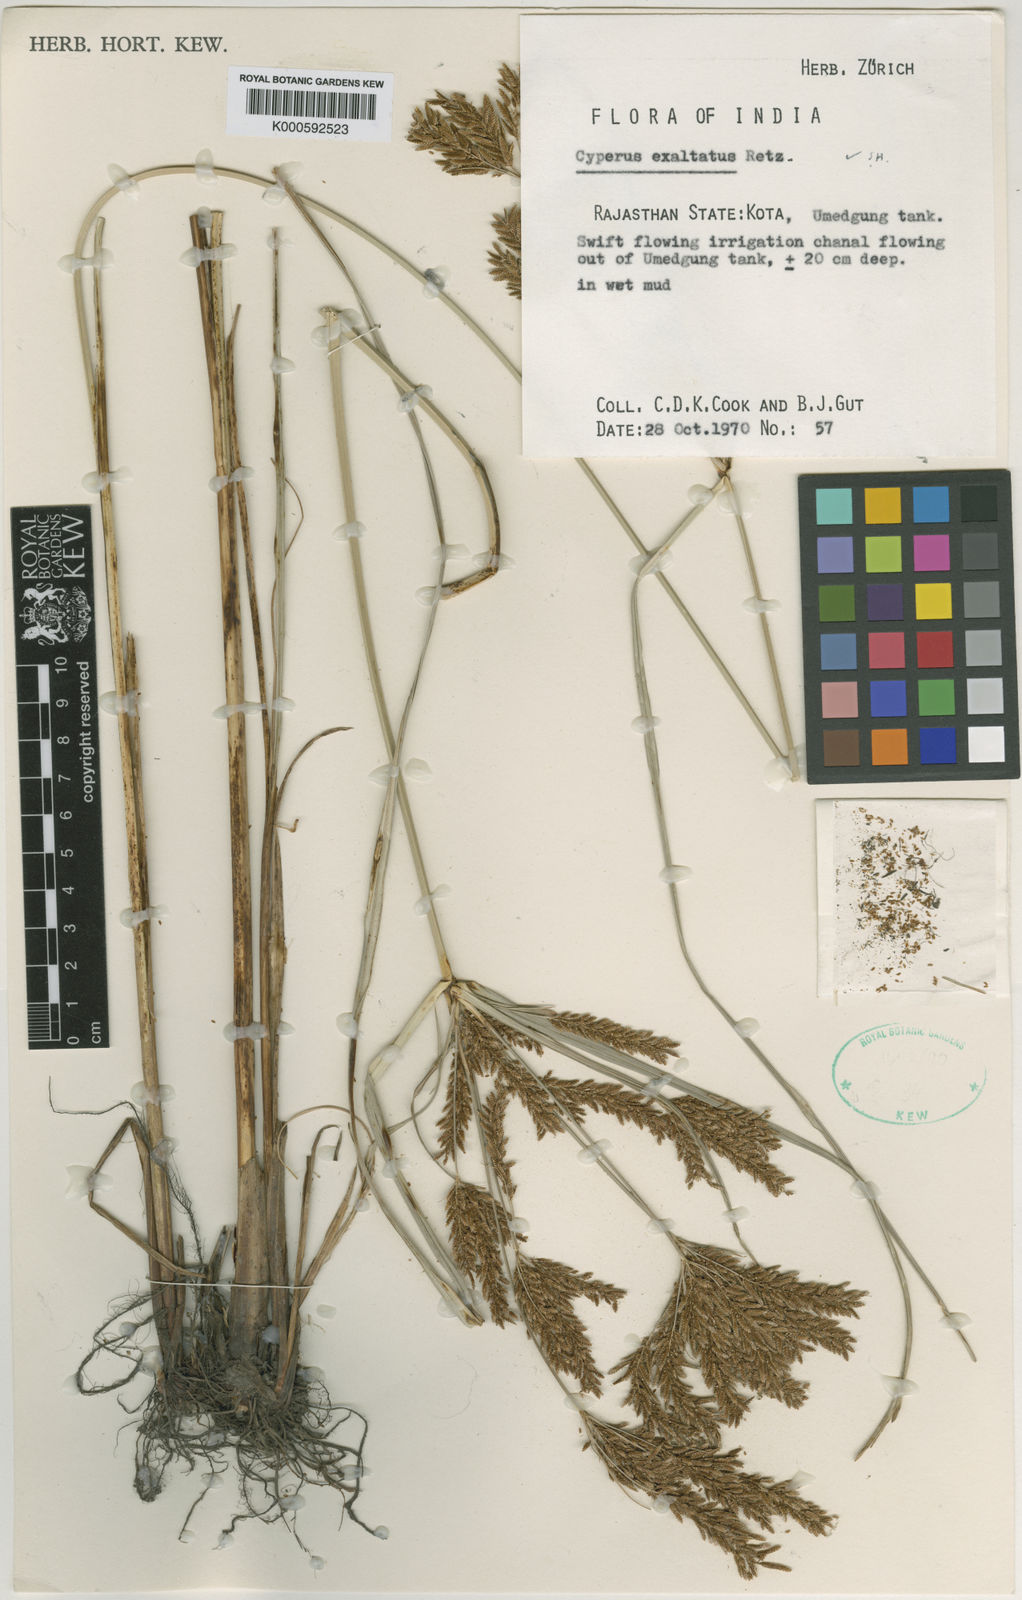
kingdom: Plantae
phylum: Tracheophyta
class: Liliopsida
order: Poales
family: Cyperaceae
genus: Cyperus
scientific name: Cyperus exaltatus
